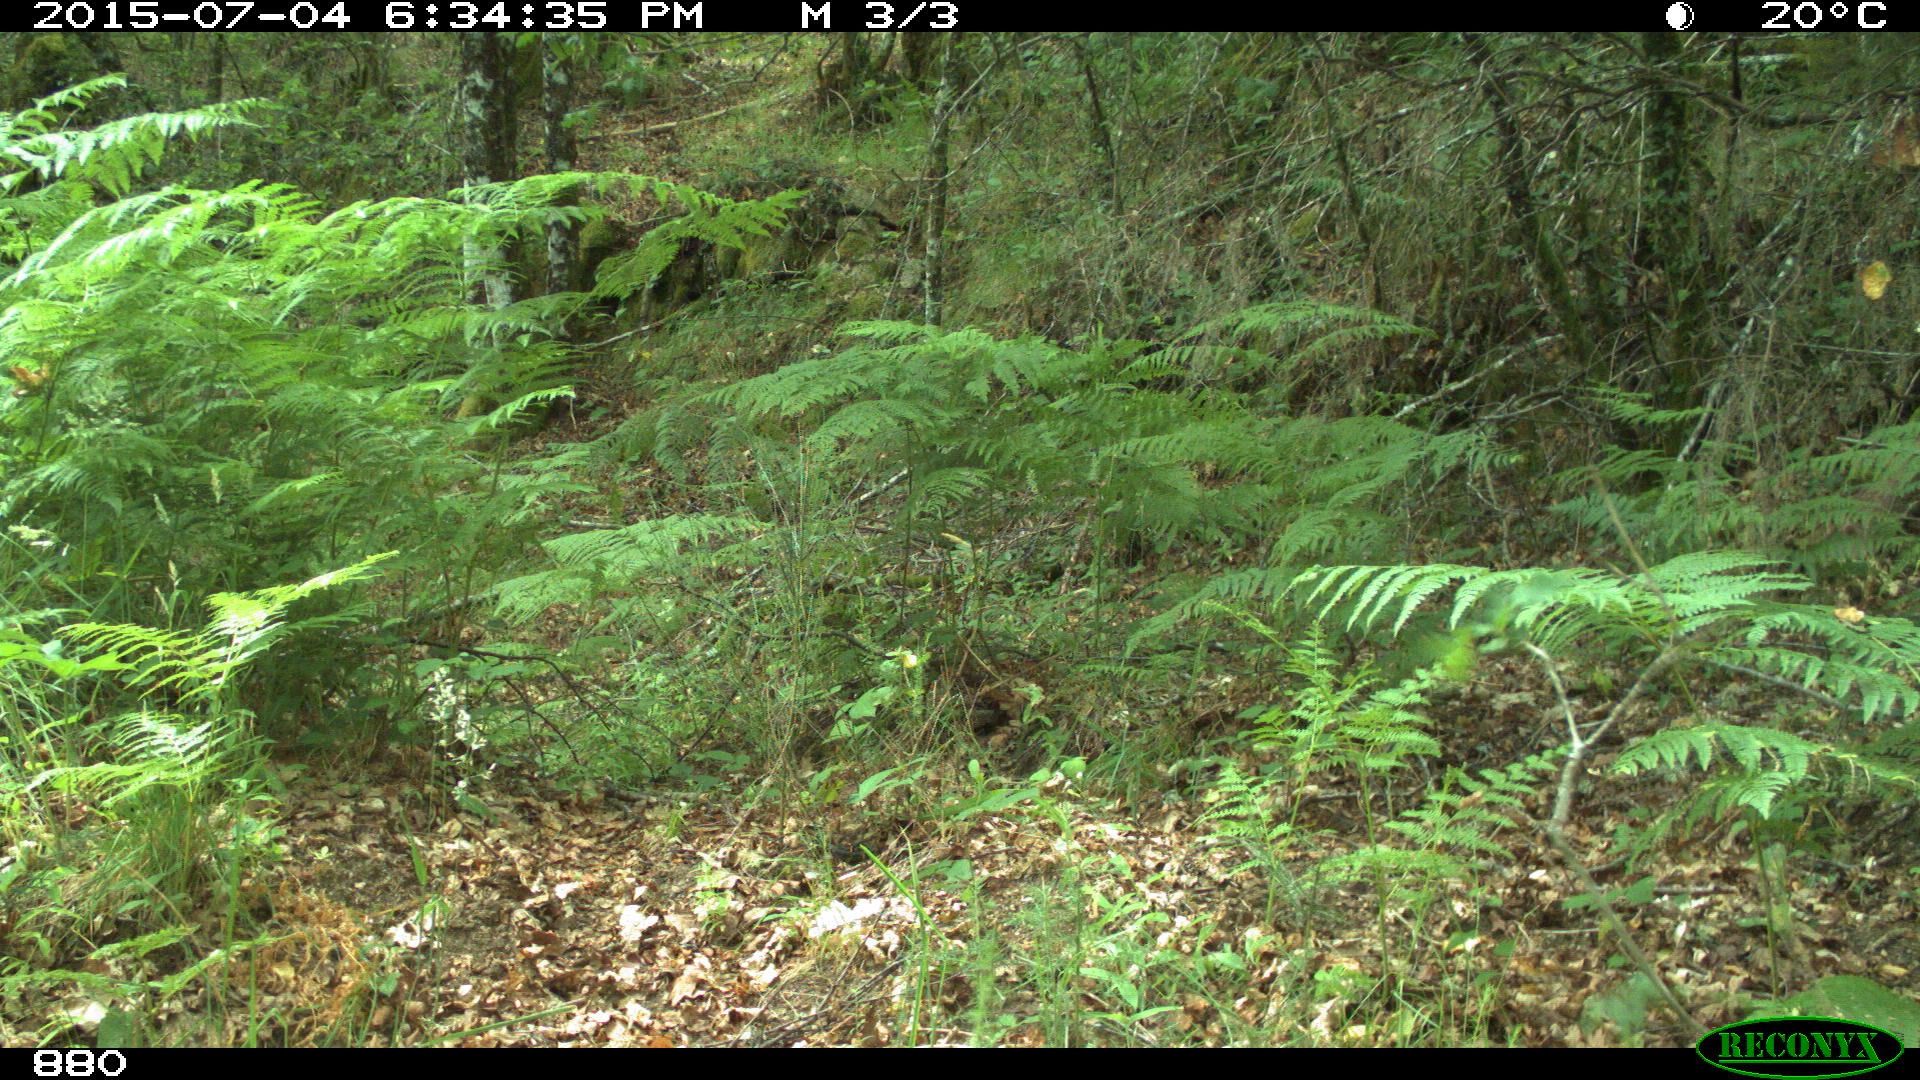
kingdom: Animalia
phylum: Chordata
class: Mammalia
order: Artiodactyla
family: Suidae
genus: Sus
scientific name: Sus scrofa
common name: Wild boar
